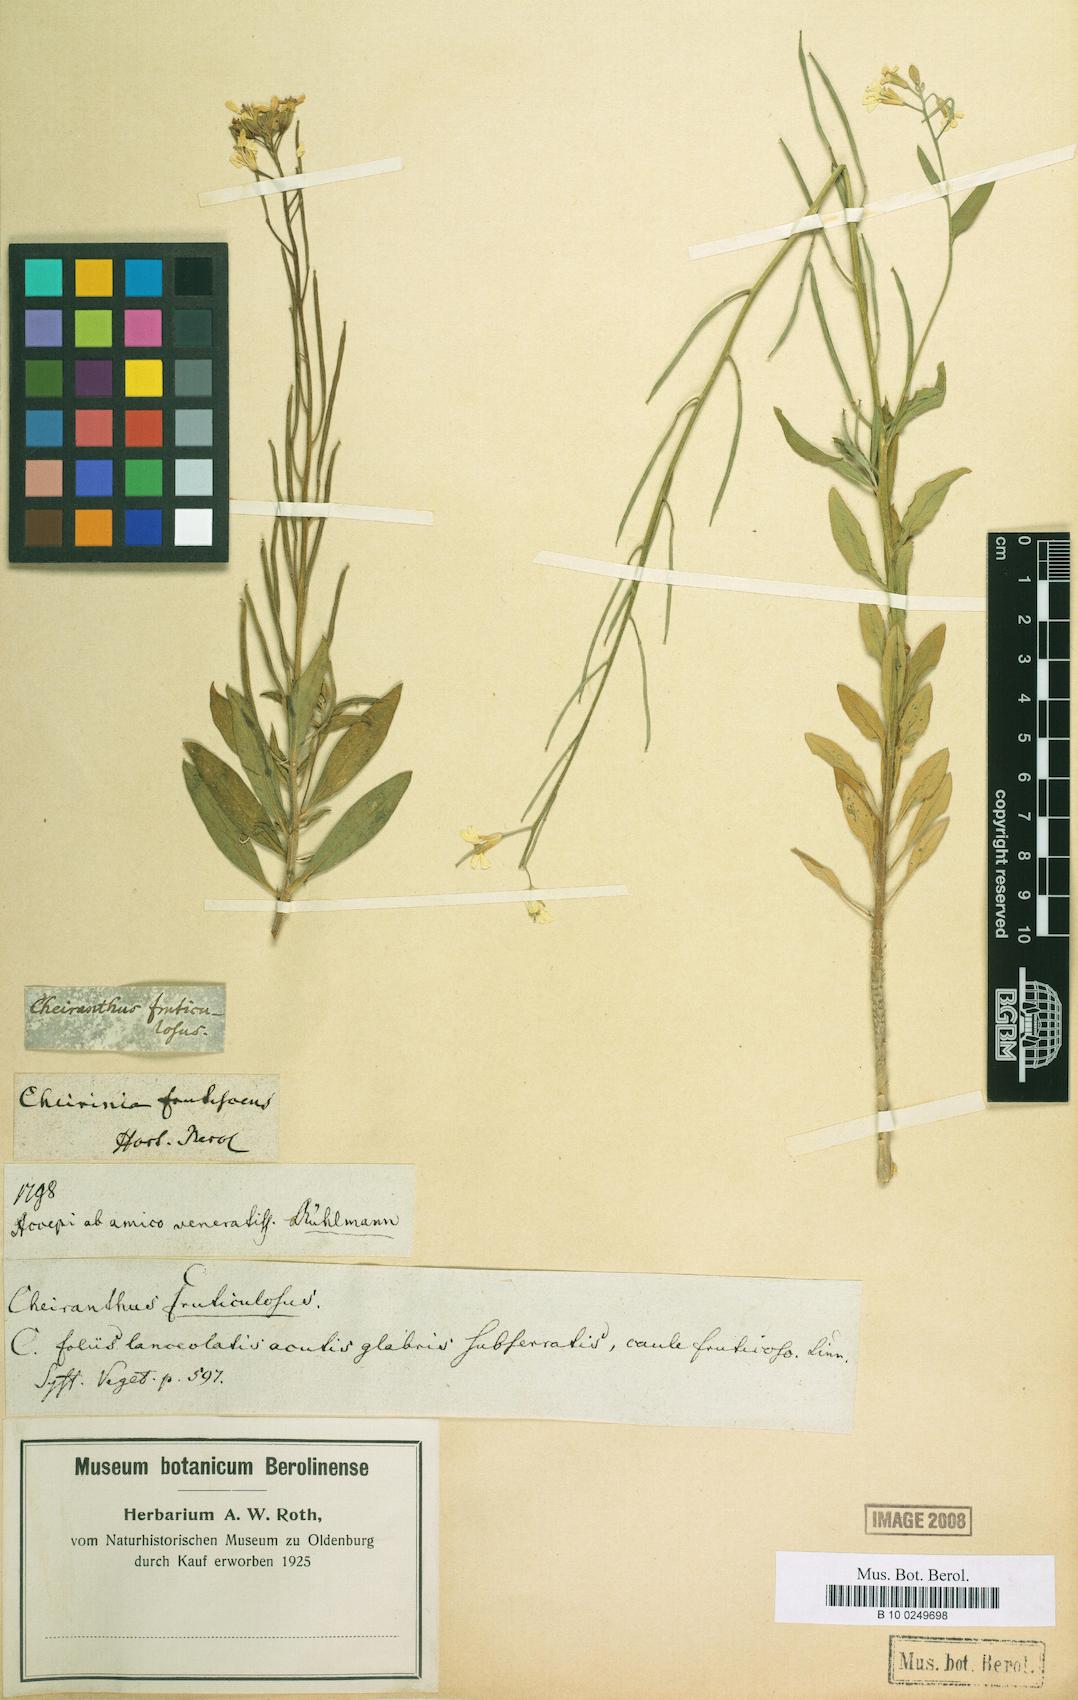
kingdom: Plantae
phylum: Tracheophyta
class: Magnoliopsida
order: Brassicales
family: Brassicaceae
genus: Erysimum
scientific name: Erysimum cheiri
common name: Wallflower
